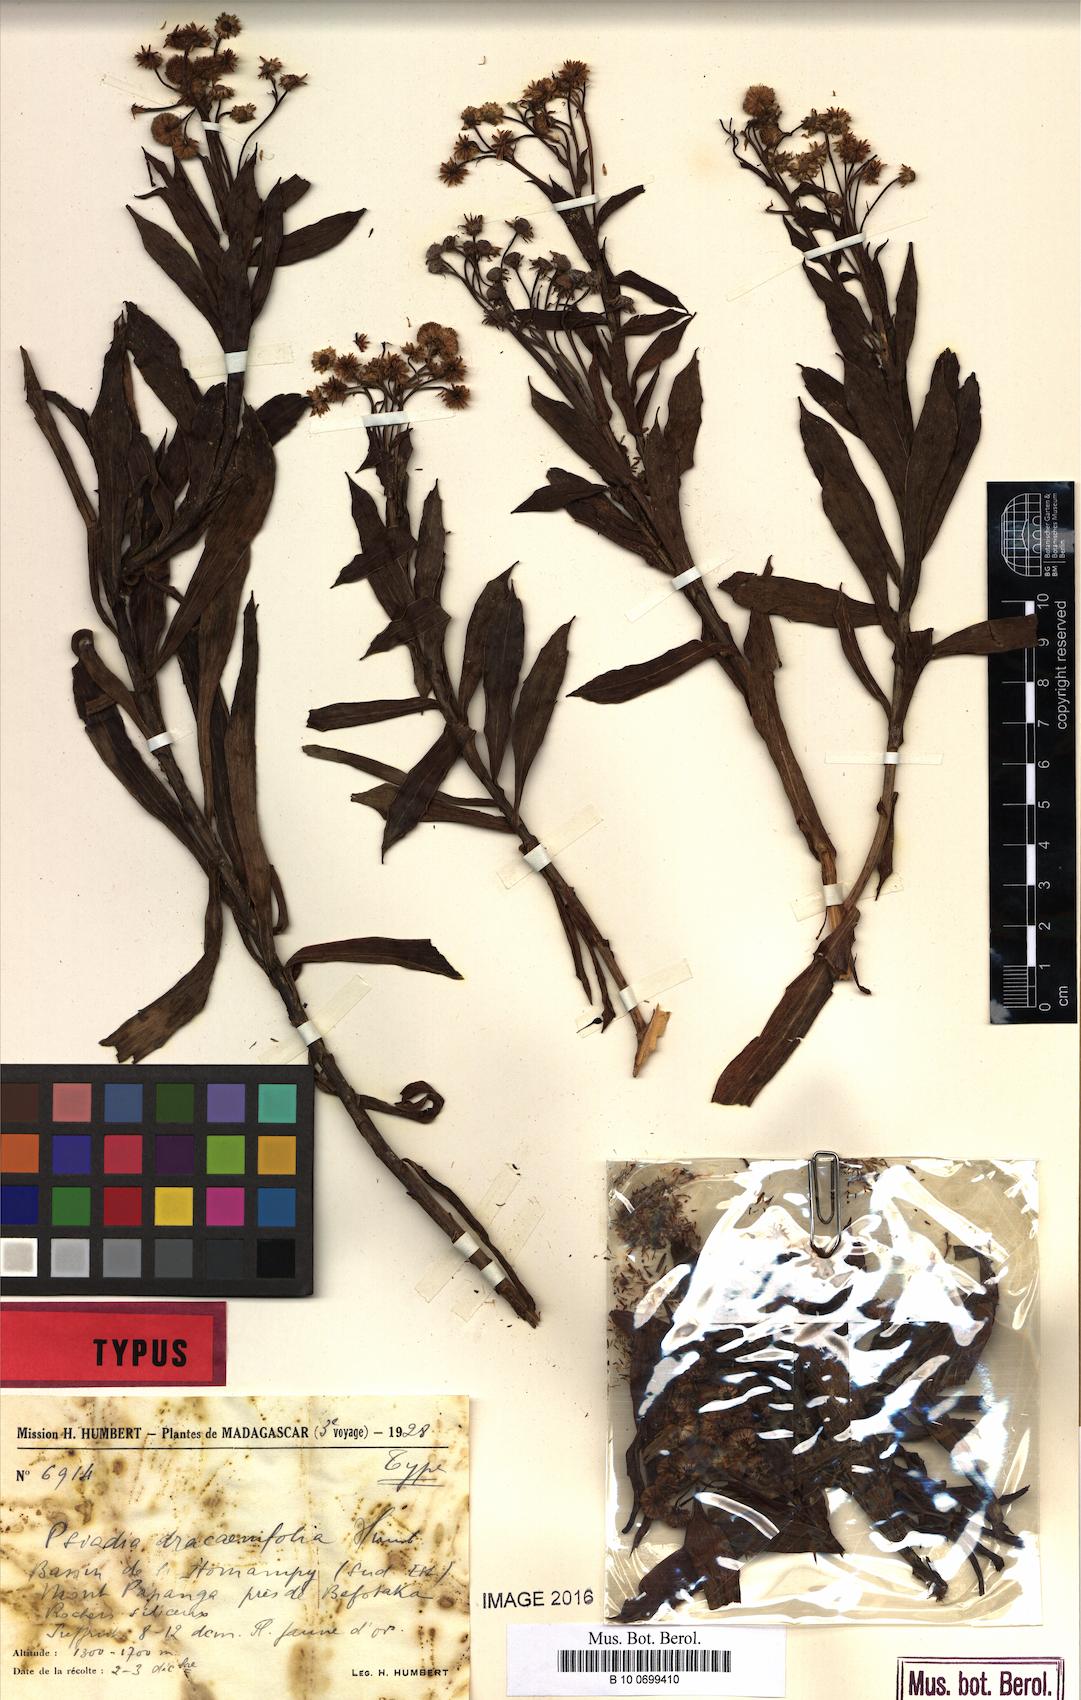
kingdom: Plantae
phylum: Tracheophyta
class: Magnoliopsida
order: Asterales
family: Asteraceae
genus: Psiadia
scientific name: Psiadia dracaenifolia
